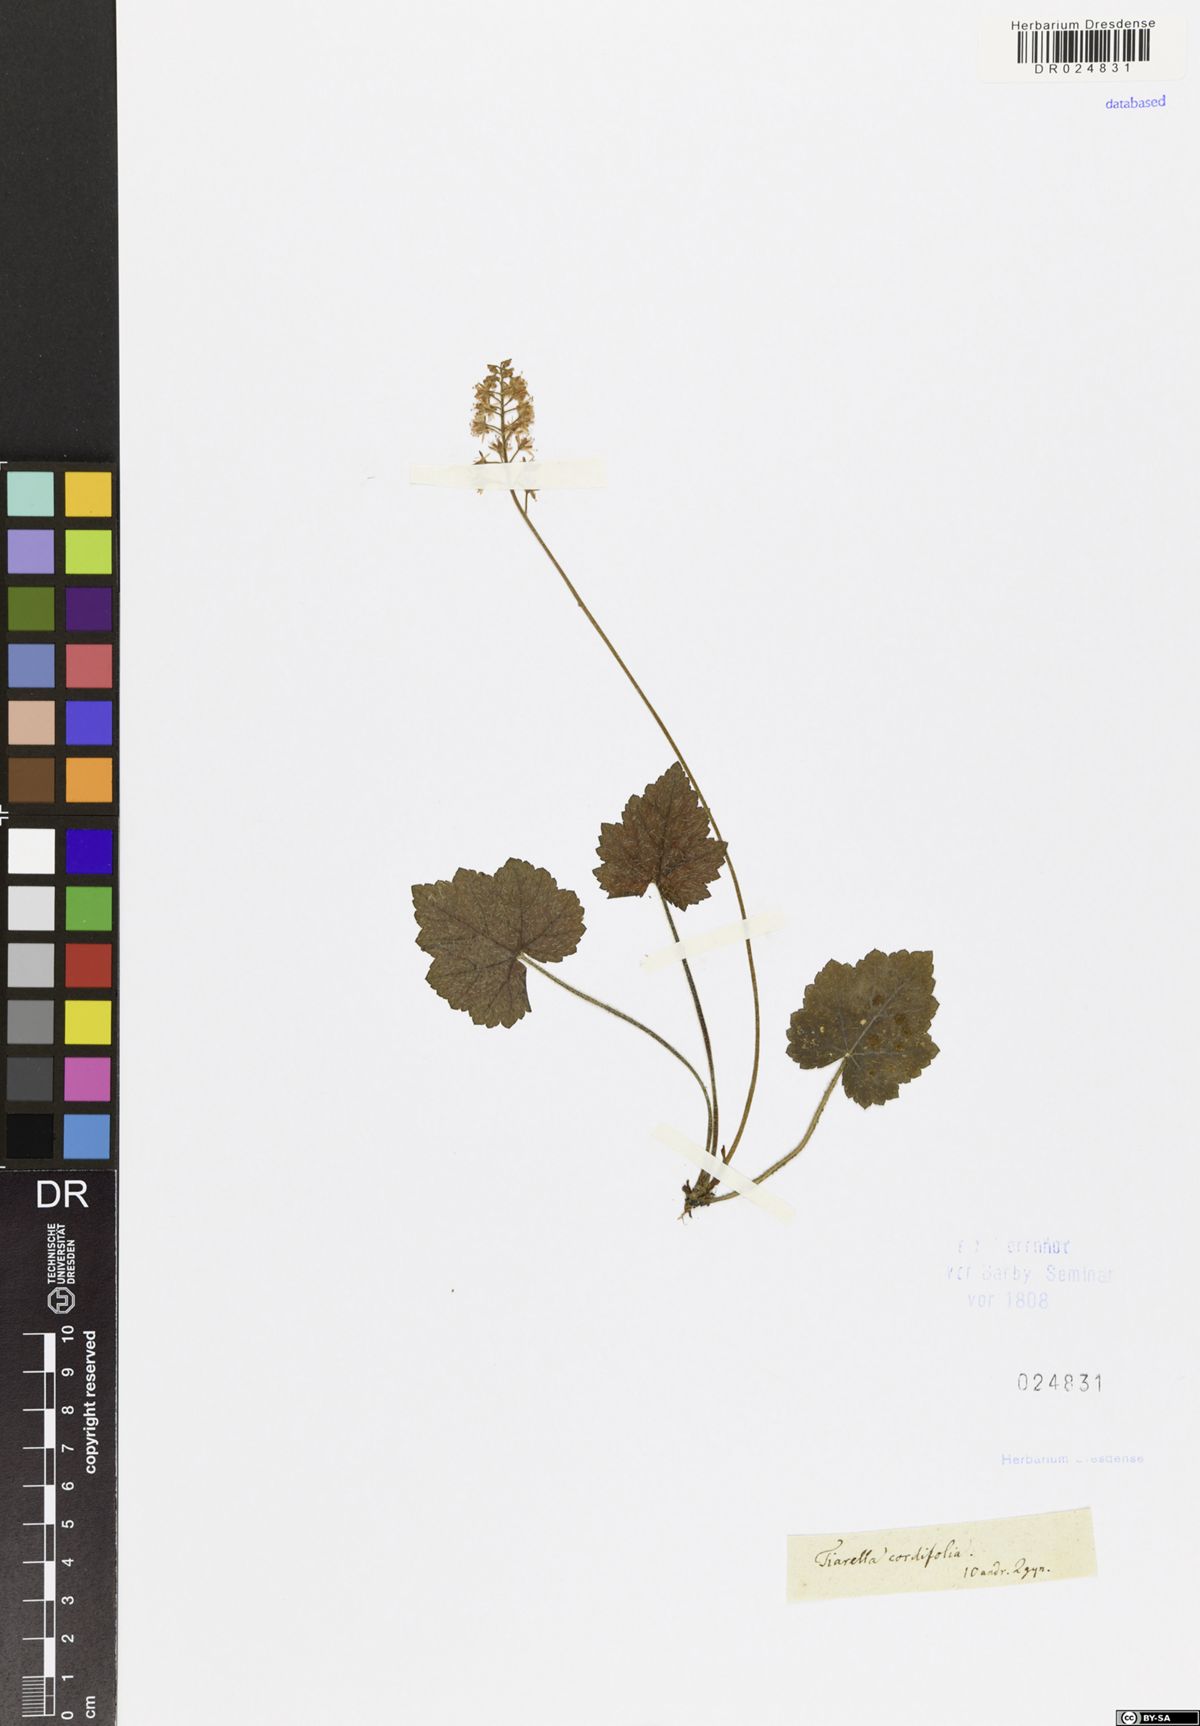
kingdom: Plantae
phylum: Tracheophyta
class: Magnoliopsida
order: Saxifragales
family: Saxifragaceae
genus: Tiarella
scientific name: Tiarella cordifolia
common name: Foamflower
